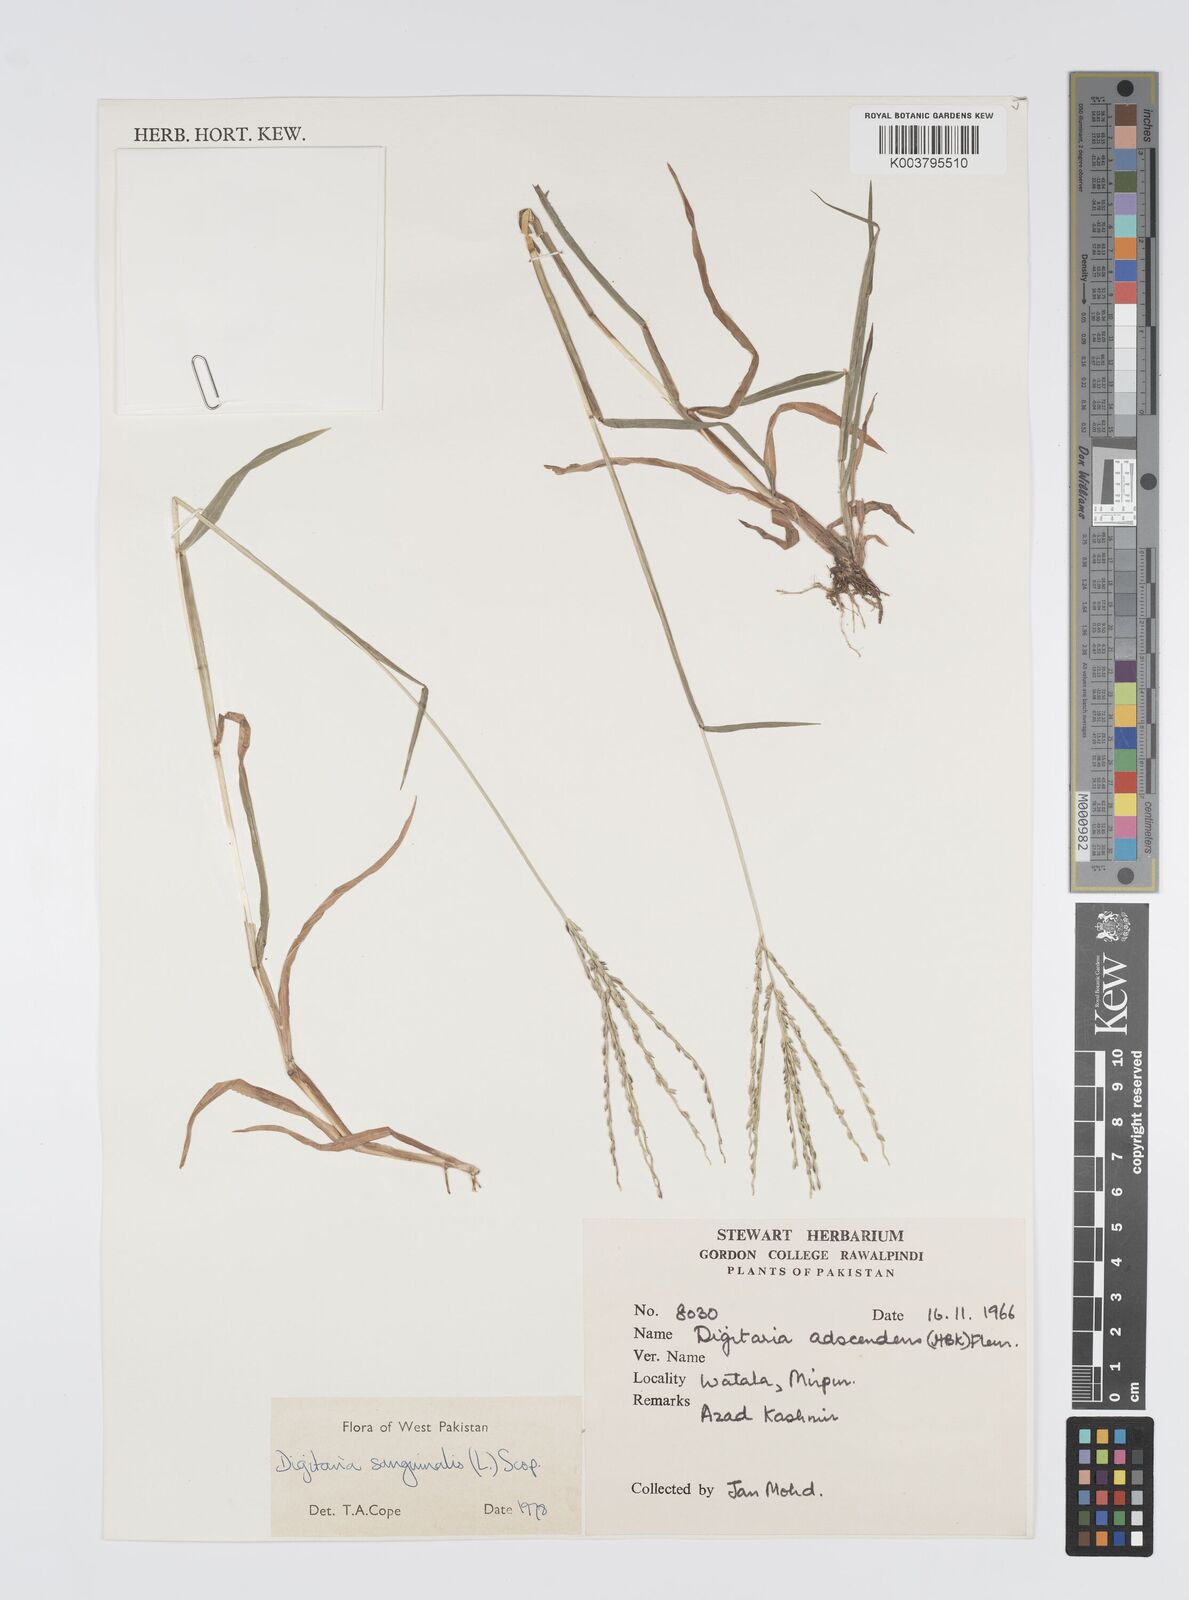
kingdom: Plantae
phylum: Tracheophyta
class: Liliopsida
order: Poales
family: Poaceae
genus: Digitaria
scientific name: Digitaria sanguinalis
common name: Hairy crabgrass
